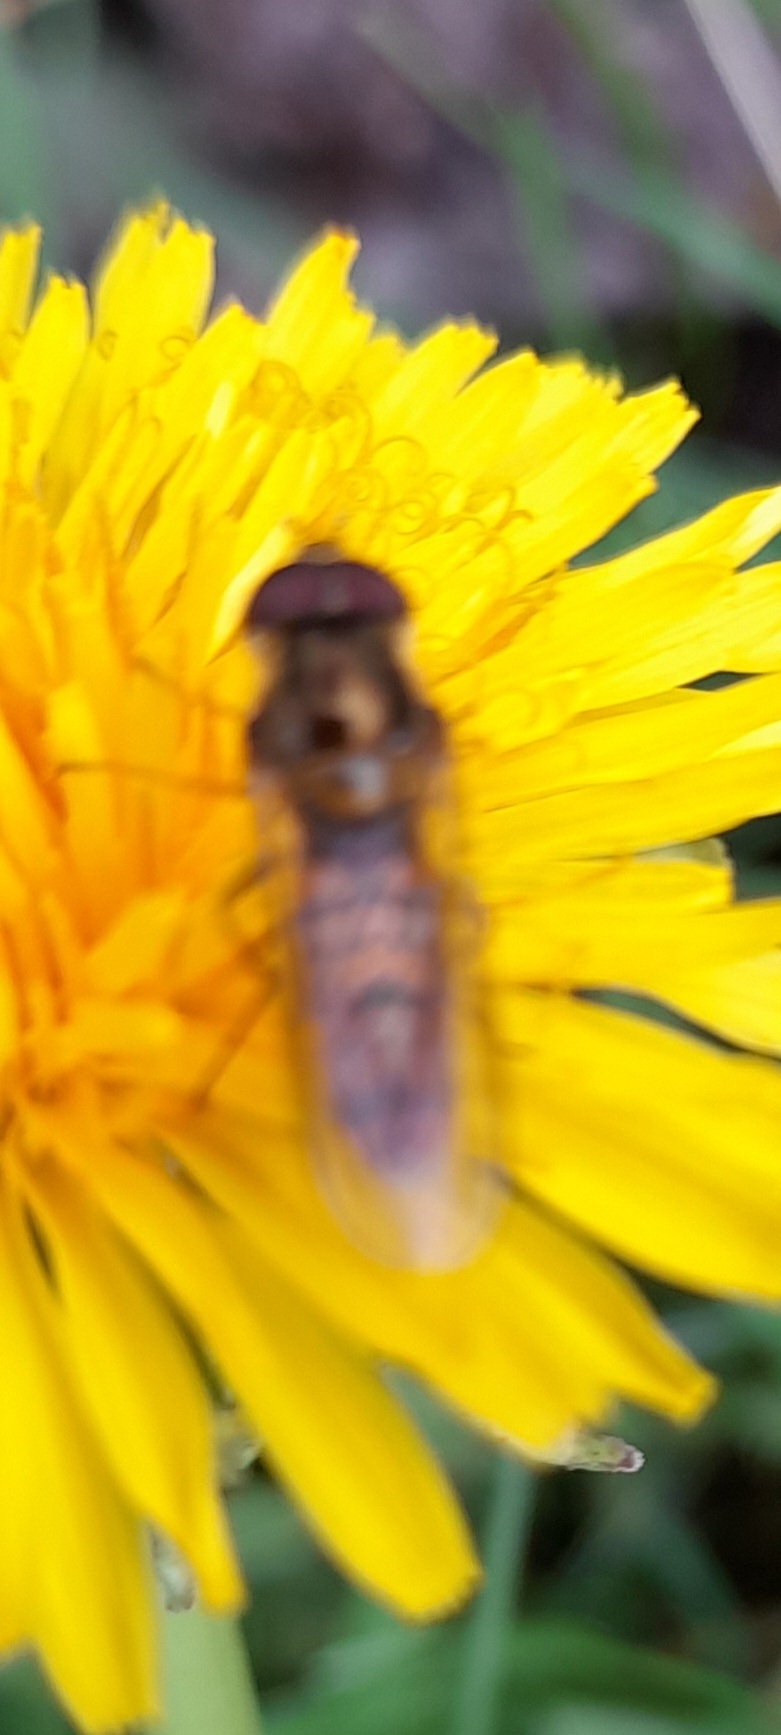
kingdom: Animalia
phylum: Arthropoda
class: Insecta
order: Diptera
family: Syrphidae
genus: Episyrphus
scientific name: Episyrphus balteatus
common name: Dobbeltbåndet svirreflue
